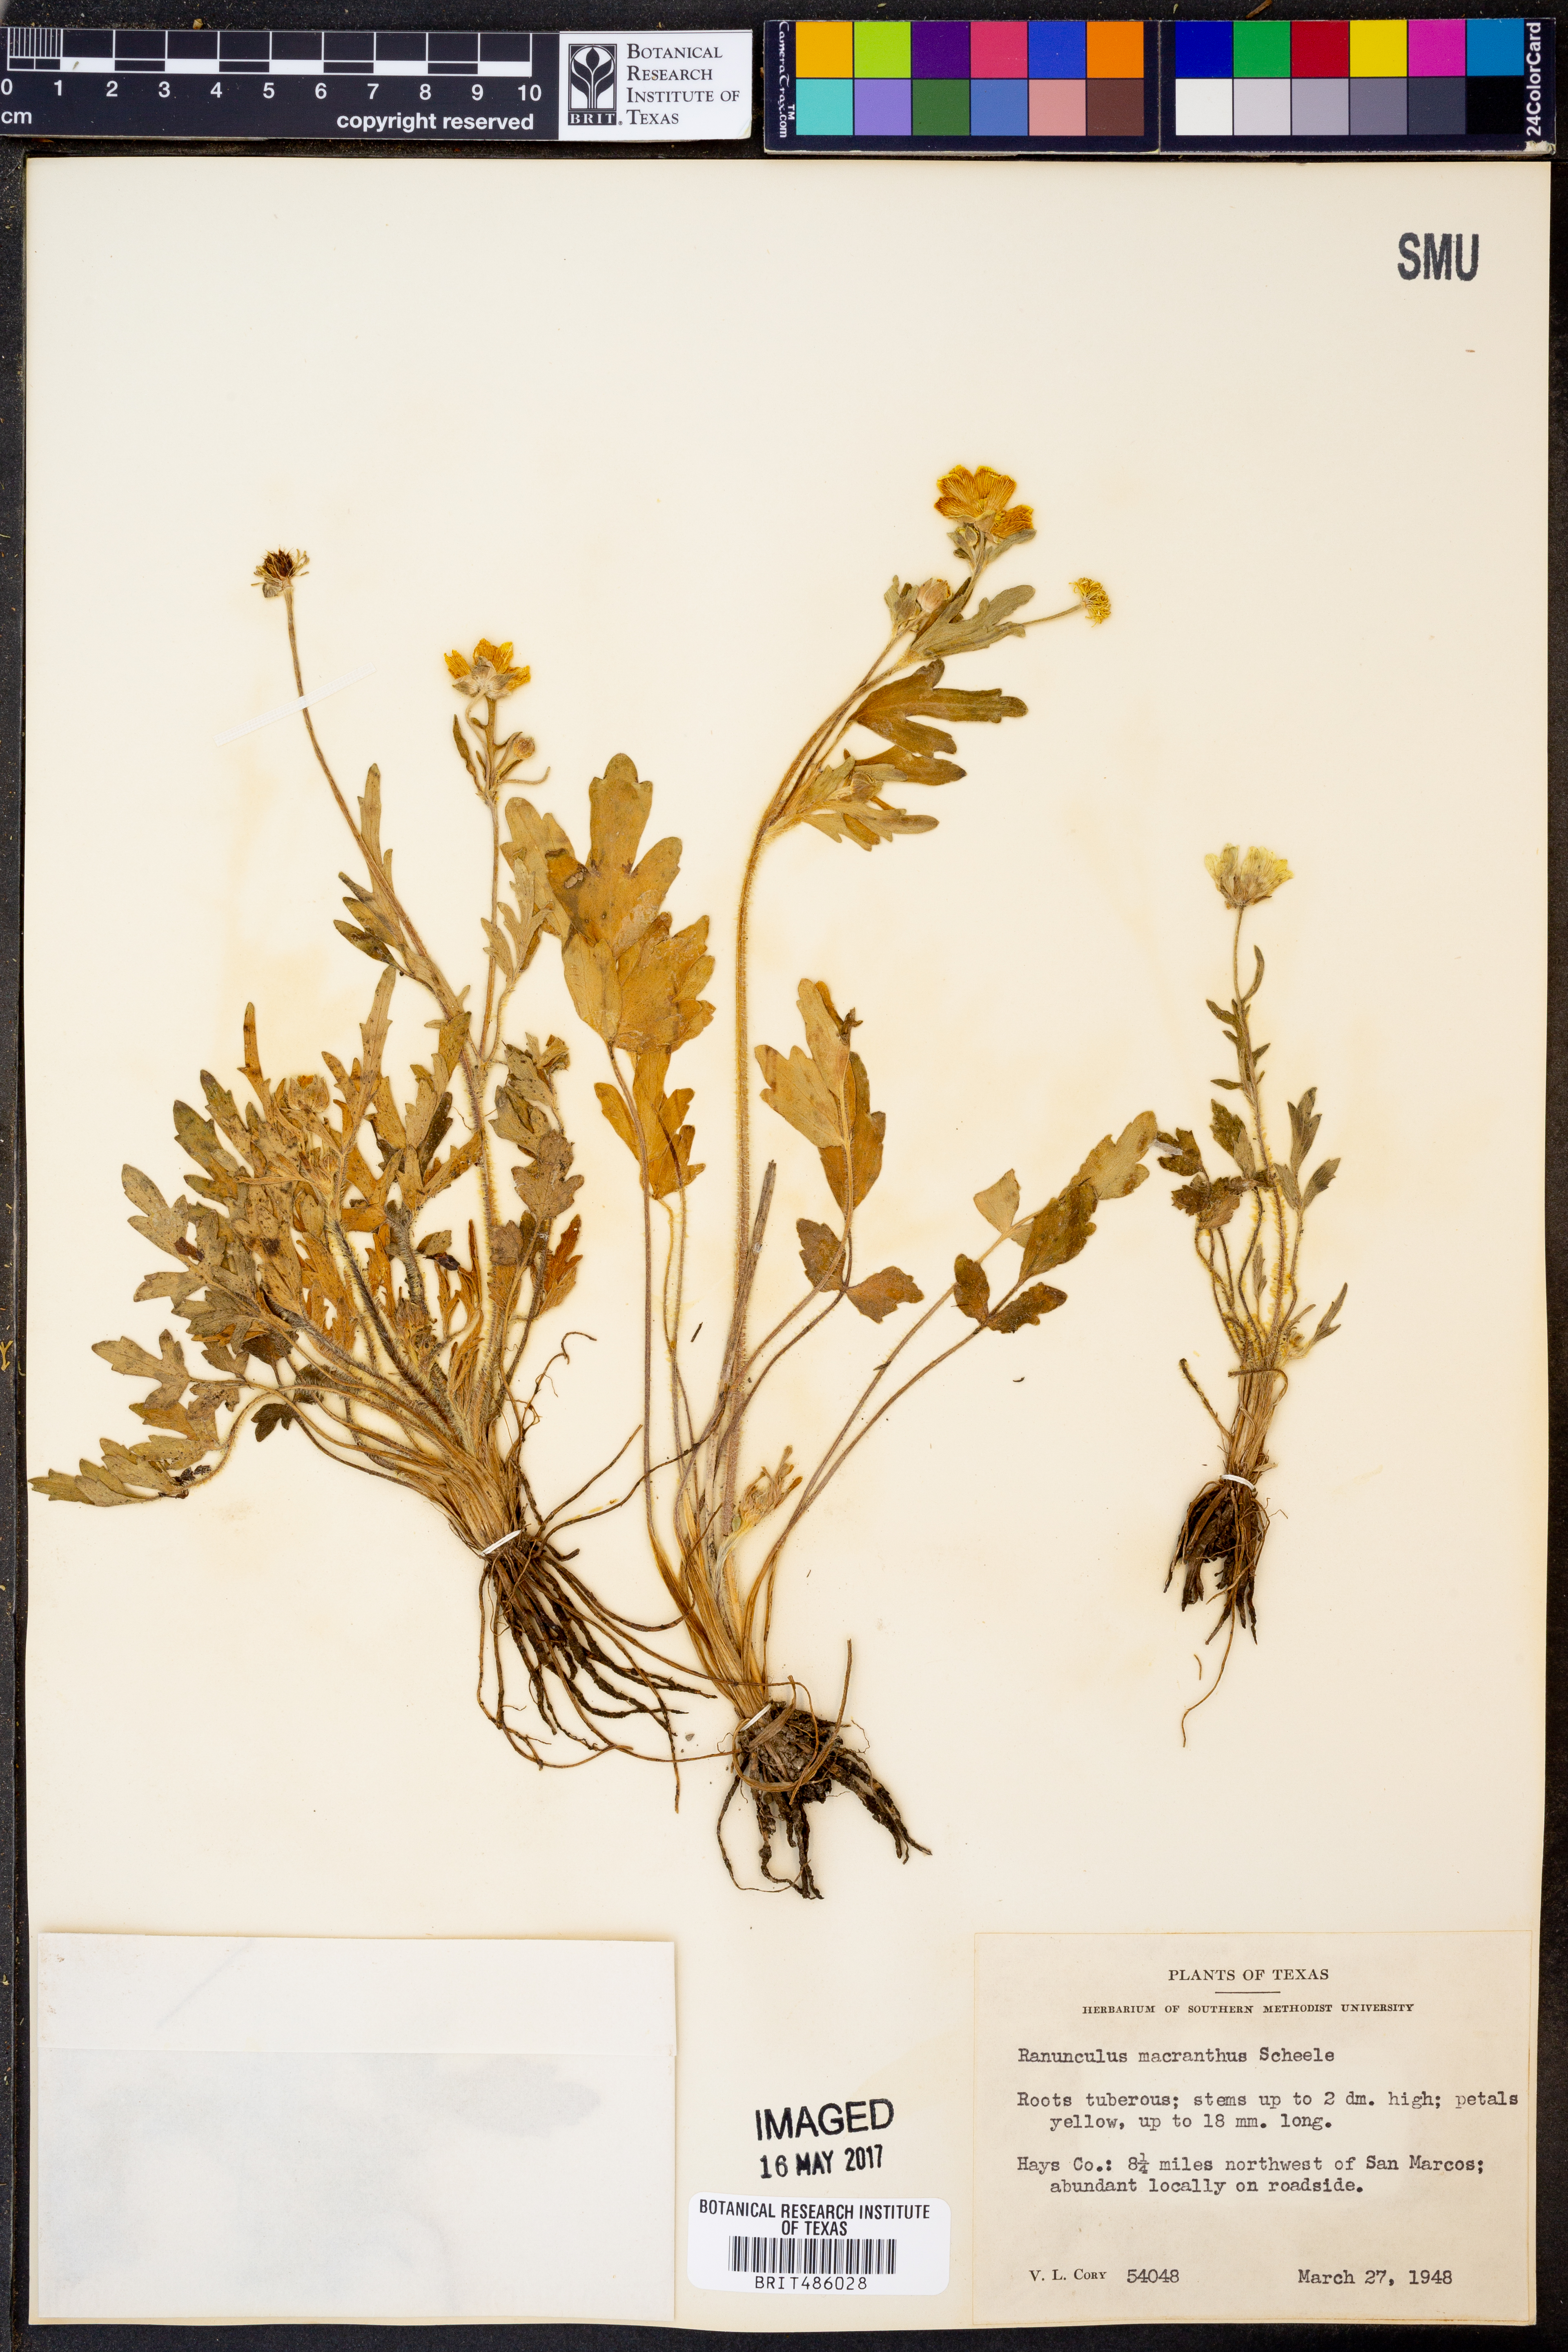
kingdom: Plantae
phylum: Tracheophyta
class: Magnoliopsida
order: Ranunculales
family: Ranunculaceae
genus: Ranunculus
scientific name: Ranunculus macranthus
